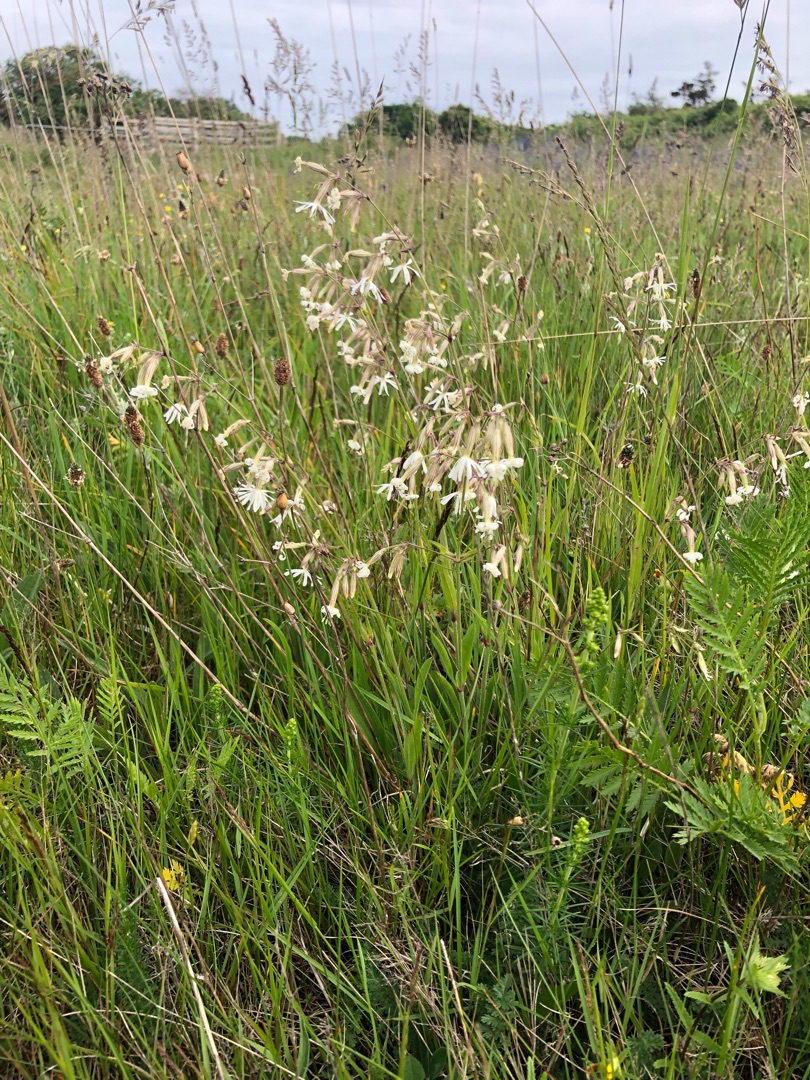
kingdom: Plantae
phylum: Tracheophyta
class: Magnoliopsida
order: Caryophyllales
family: Caryophyllaceae
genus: Silene
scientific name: Silene nutans
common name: Nikkende limurt
